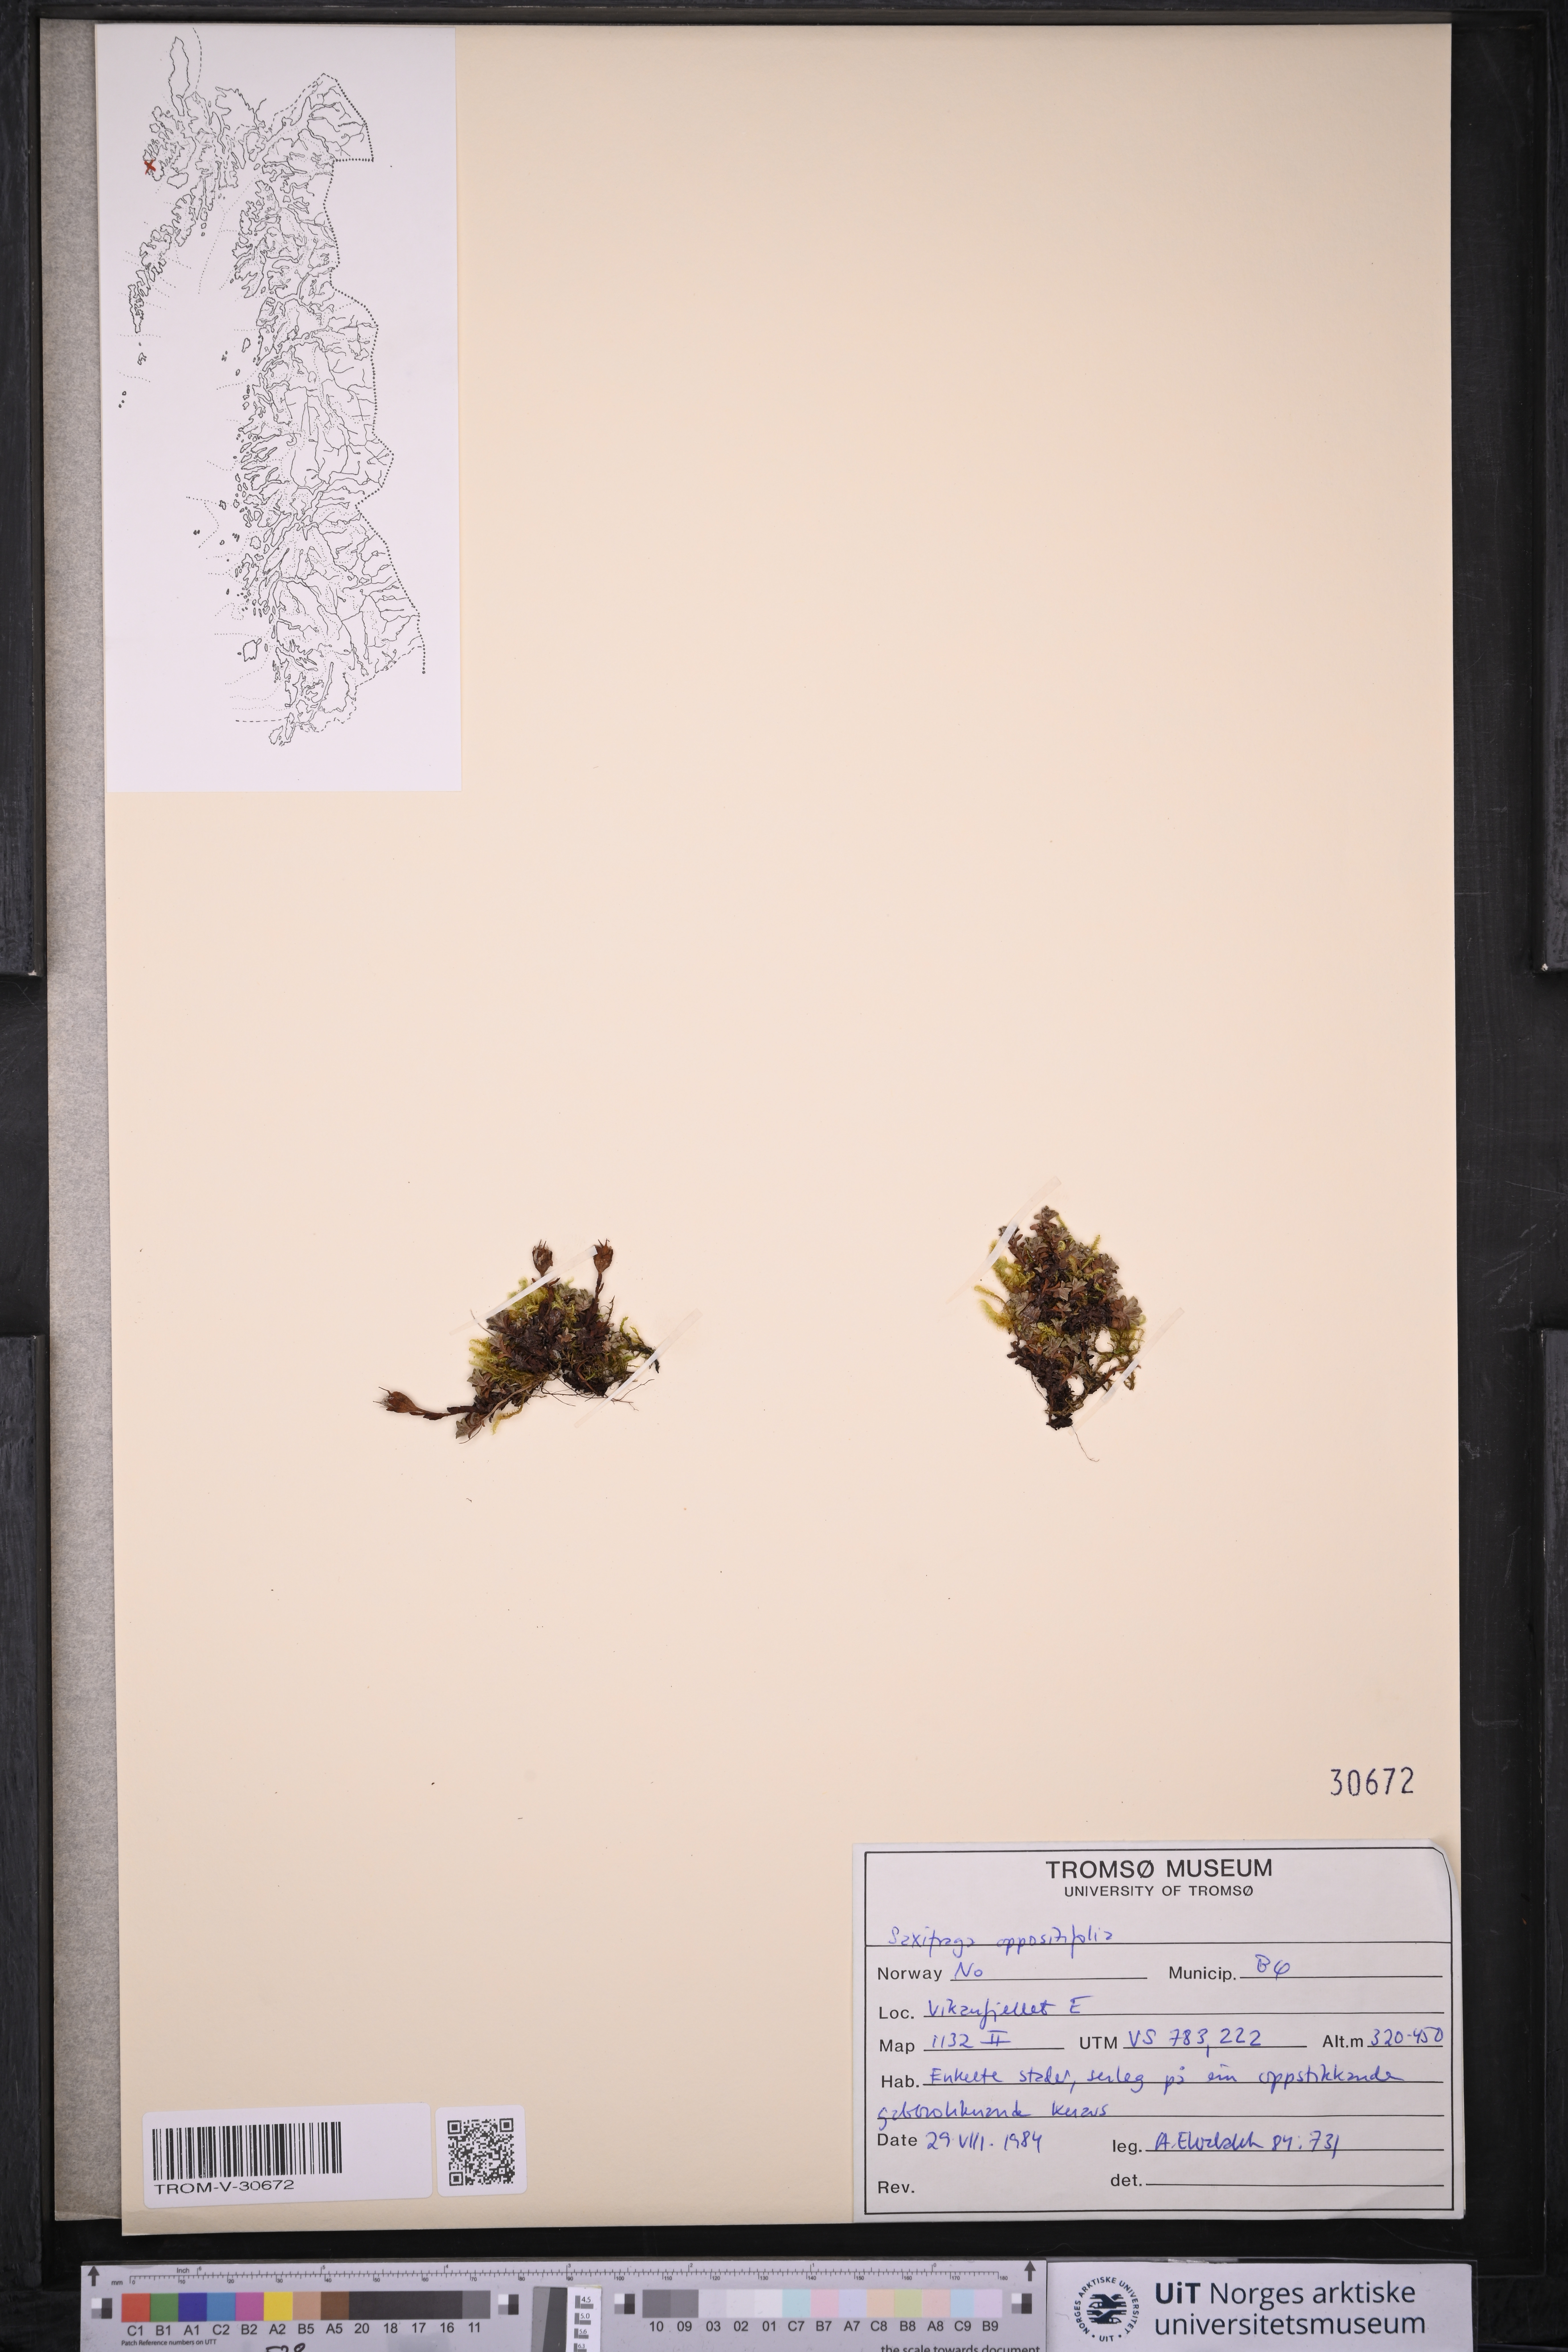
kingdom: Plantae
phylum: Tracheophyta
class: Magnoliopsida
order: Saxifragales
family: Saxifragaceae
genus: Saxifraga
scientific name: Saxifraga oppositifolia
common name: Purple saxifrage
